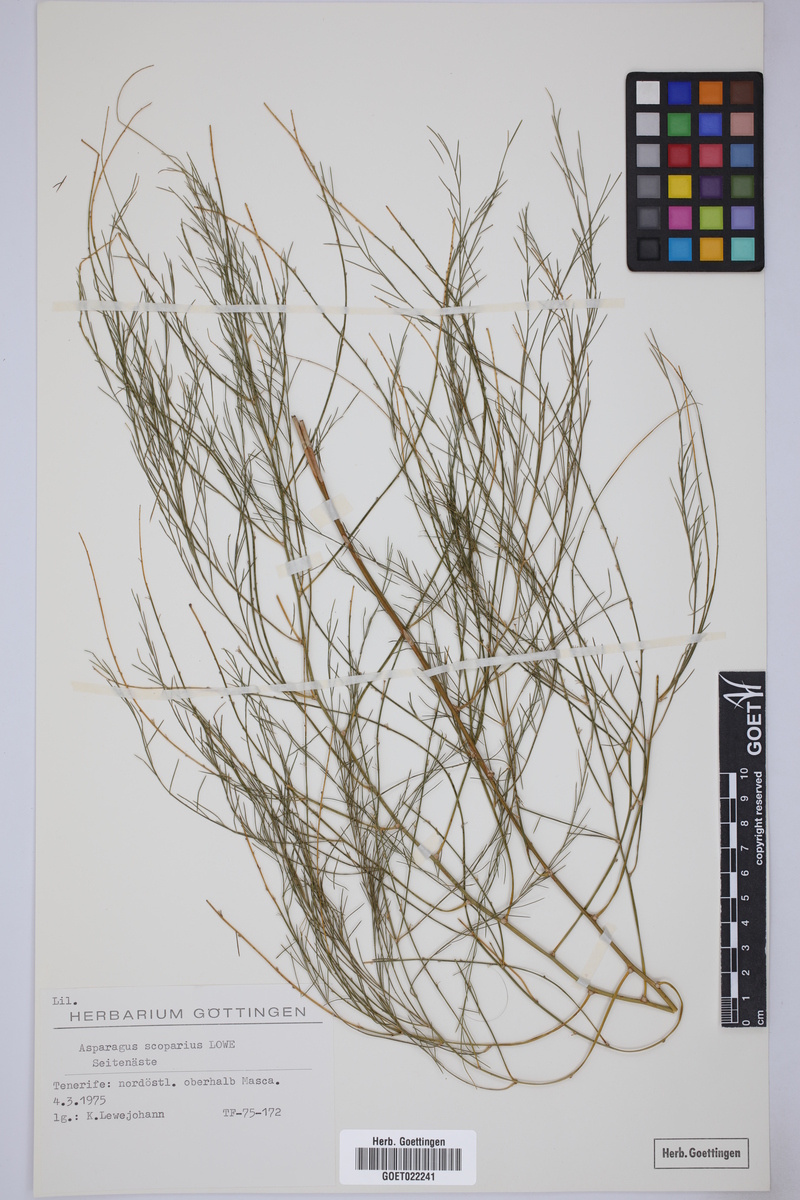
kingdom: Plantae
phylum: Tracheophyta
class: Liliopsida
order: Asparagales
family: Asparagaceae
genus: Asparagus
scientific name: Asparagus scoparius
